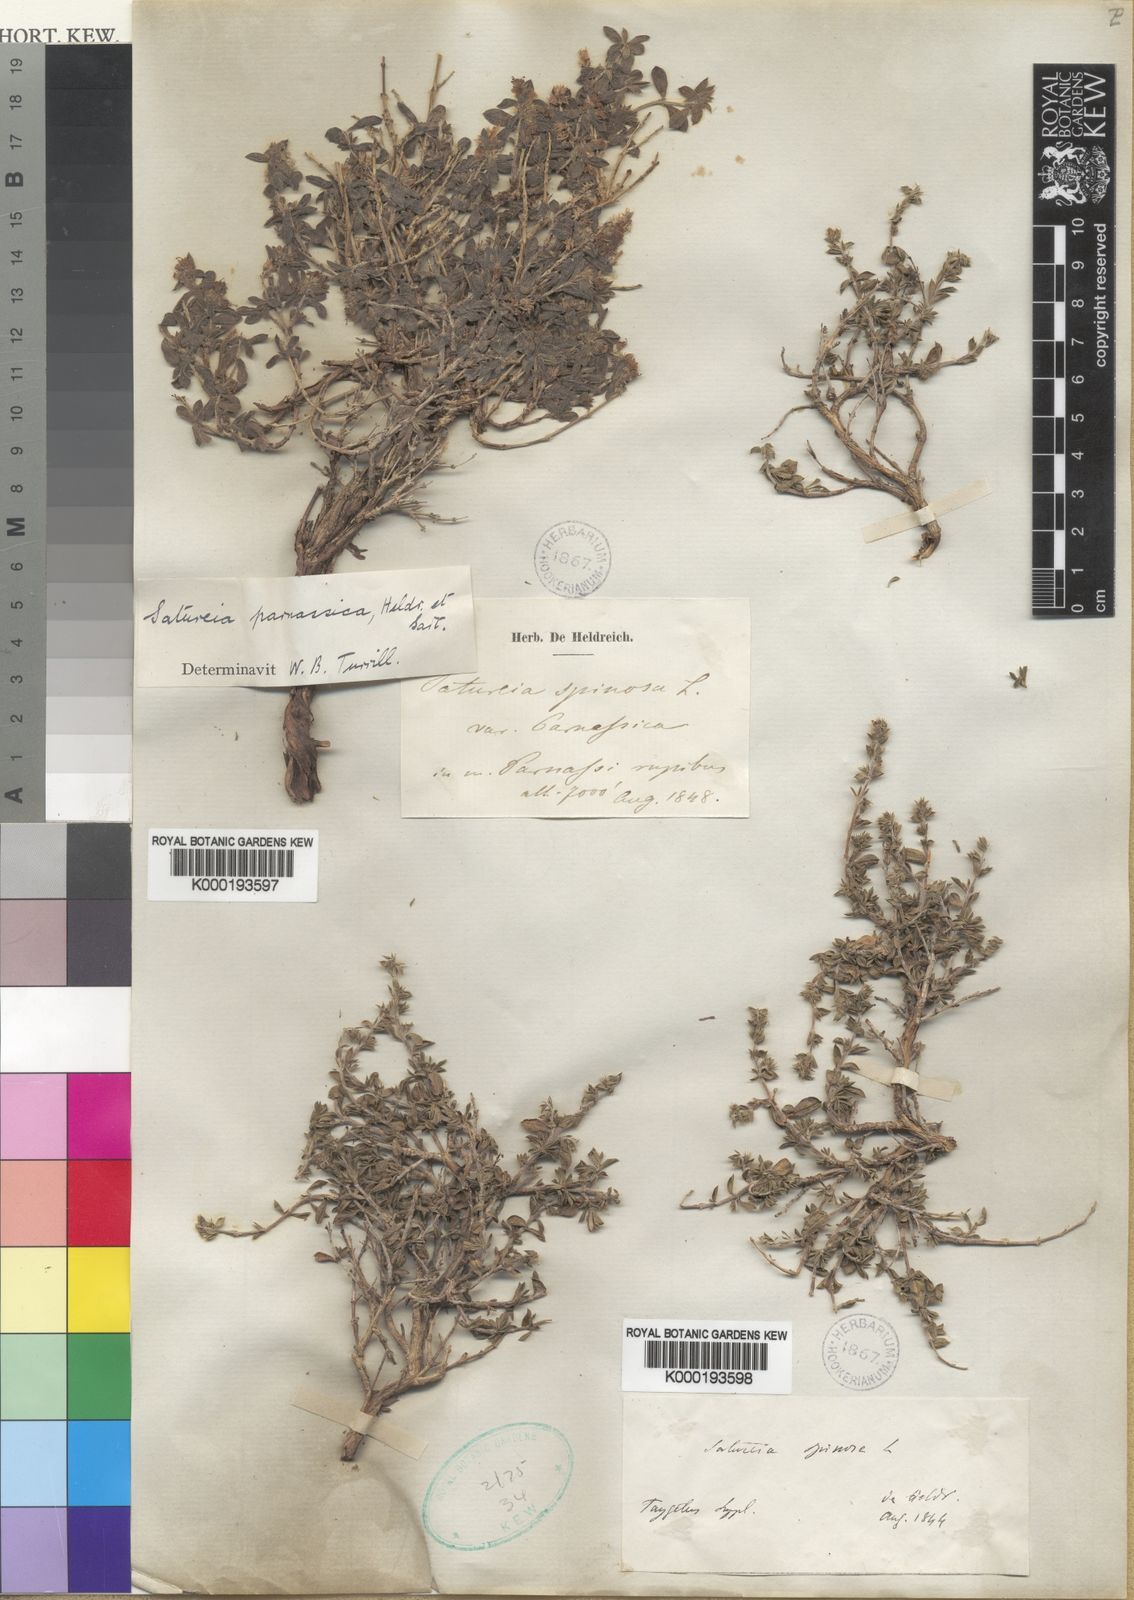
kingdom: Plantae
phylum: Tracheophyta
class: Magnoliopsida
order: Lamiales
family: Lamiaceae
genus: Satureja
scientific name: Satureja parnassica
